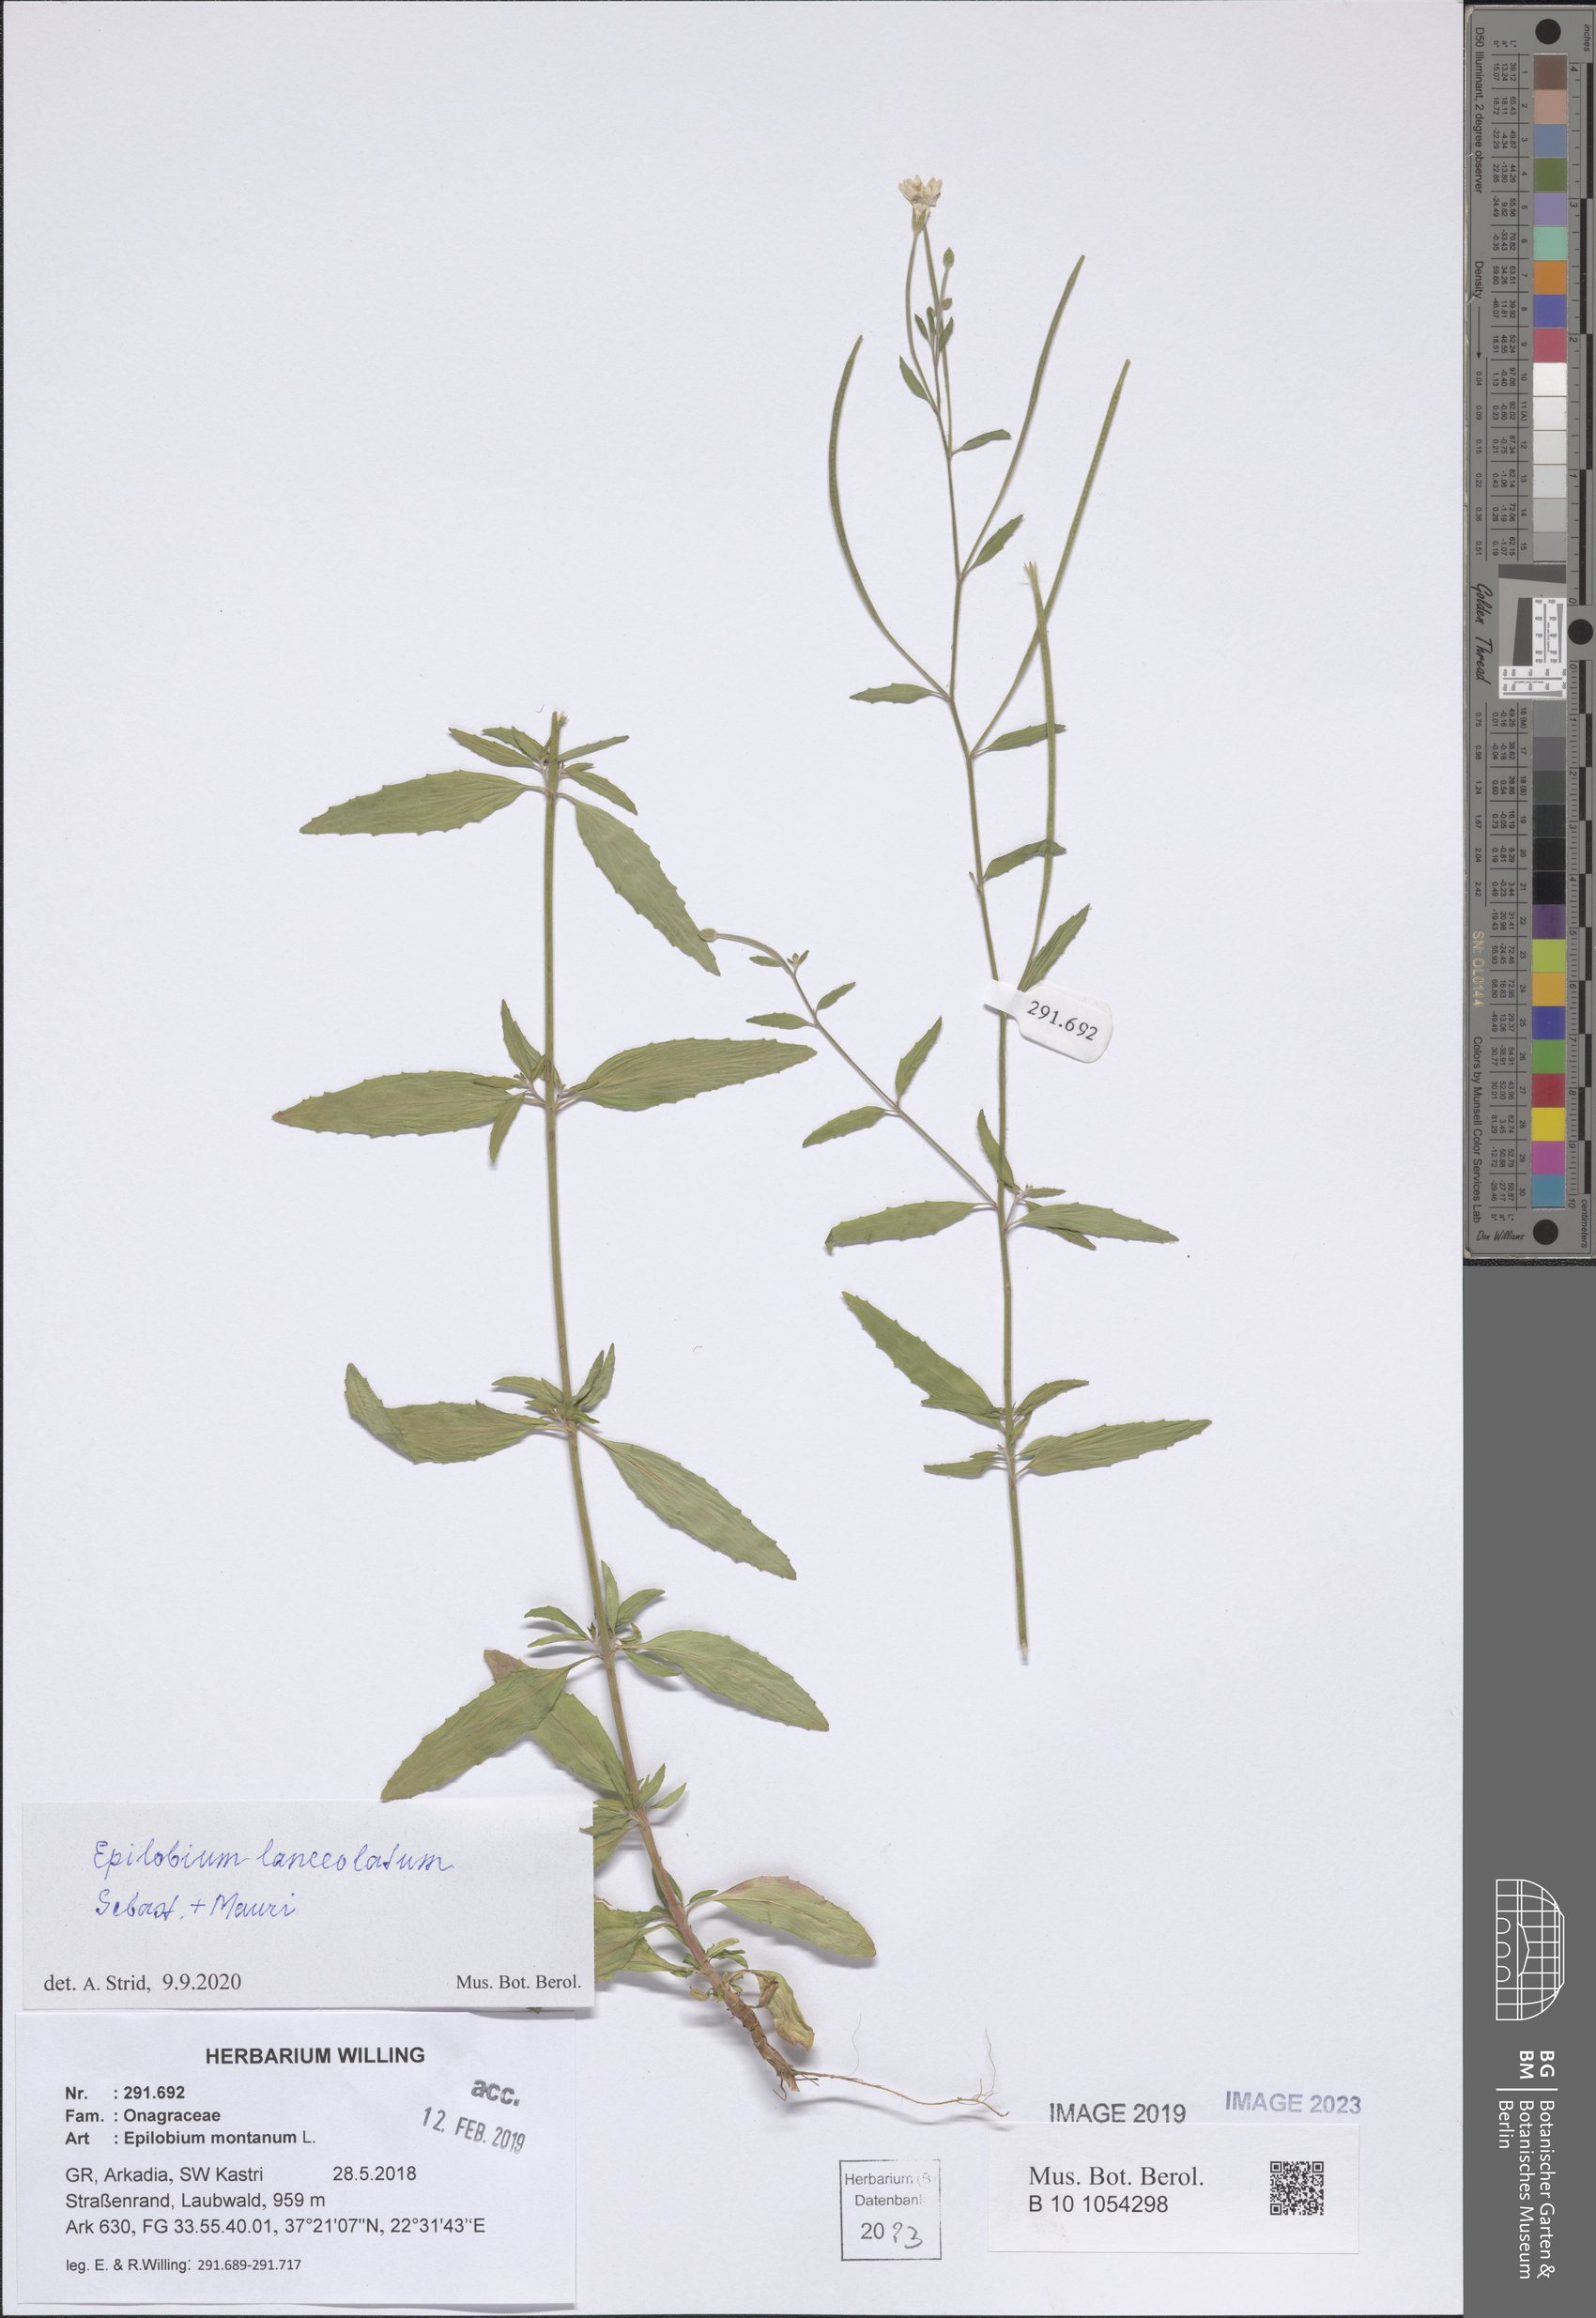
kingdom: Plantae
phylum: Tracheophyta
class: Magnoliopsida
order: Myrtales
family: Onagraceae
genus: Epilobium
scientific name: Epilobium lanceolatum
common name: Spear-leaved willowherb
